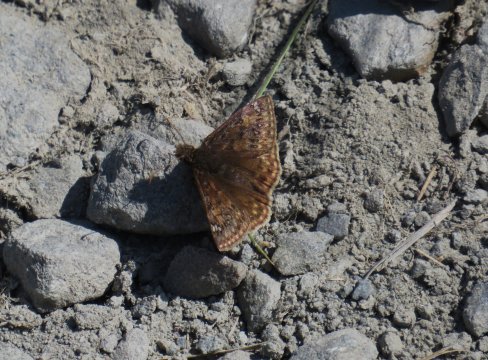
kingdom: Animalia
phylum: Arthropoda
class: Insecta
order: Lepidoptera
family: Hesperiidae
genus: Gesta
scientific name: Gesta
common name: Juvenal's Duskywing
